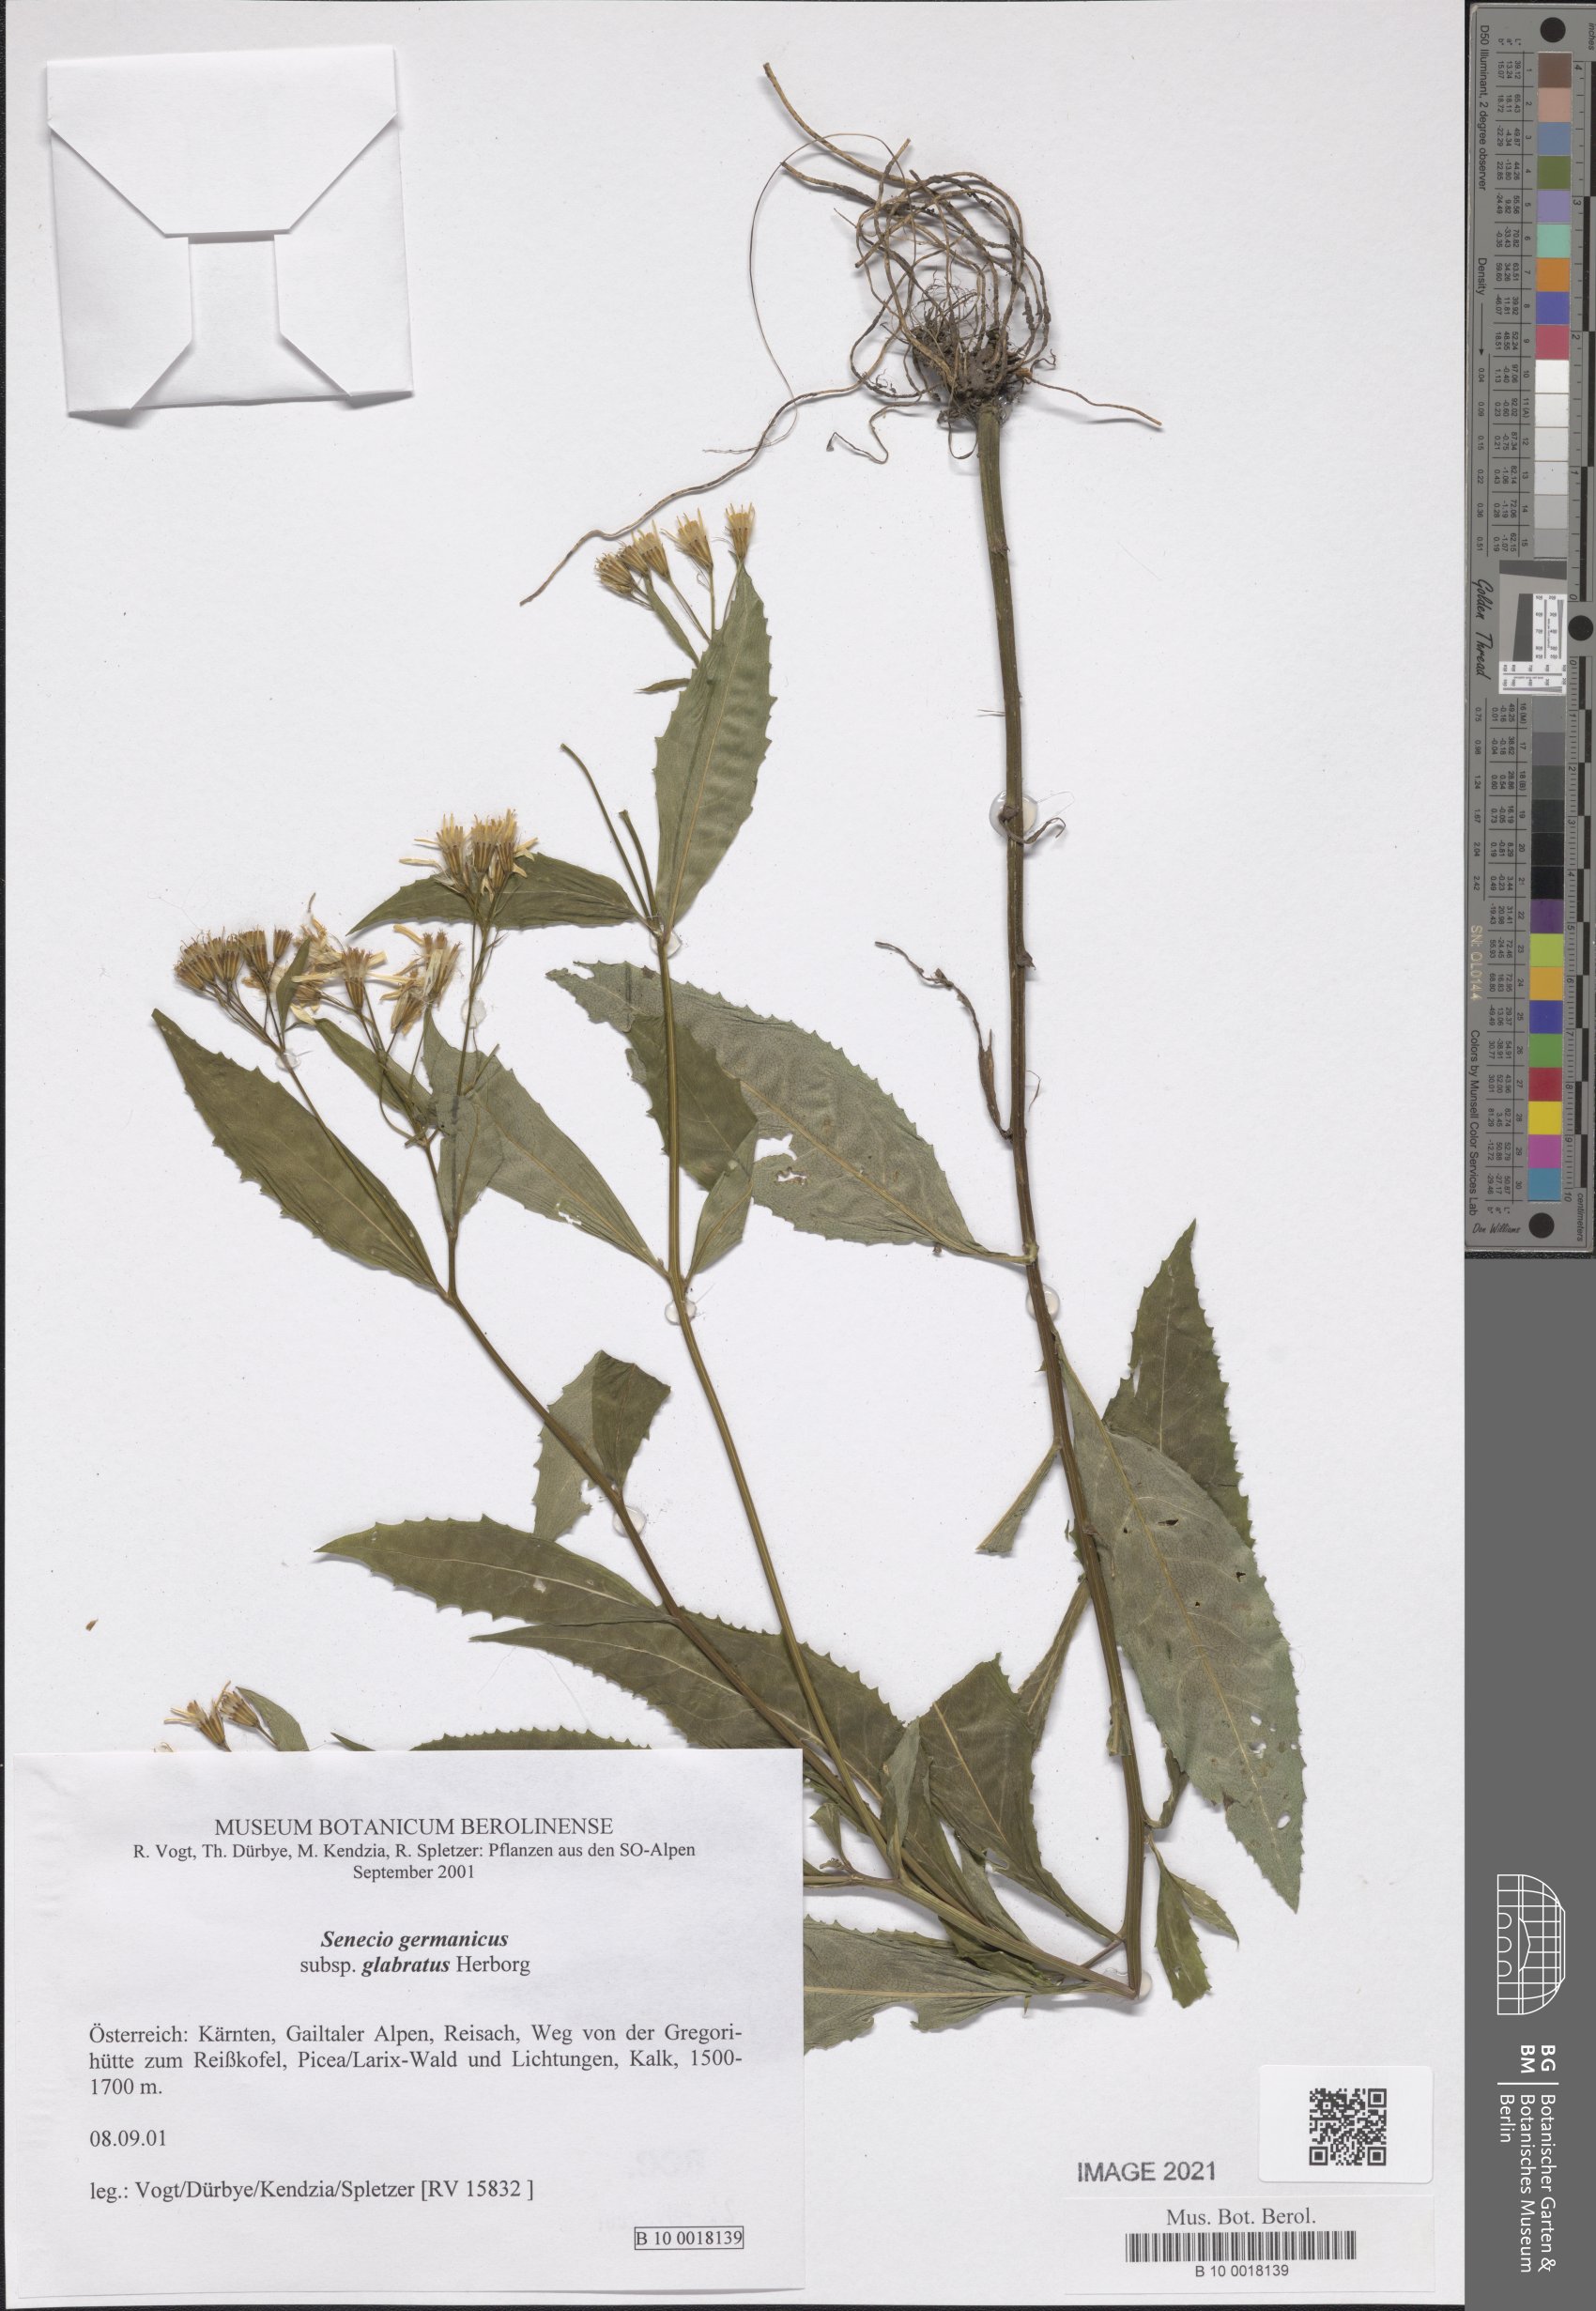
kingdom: Plantae
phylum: Tracheophyta
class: Magnoliopsida
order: Asterales
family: Asteraceae
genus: Senecio
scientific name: Senecio germanicus
